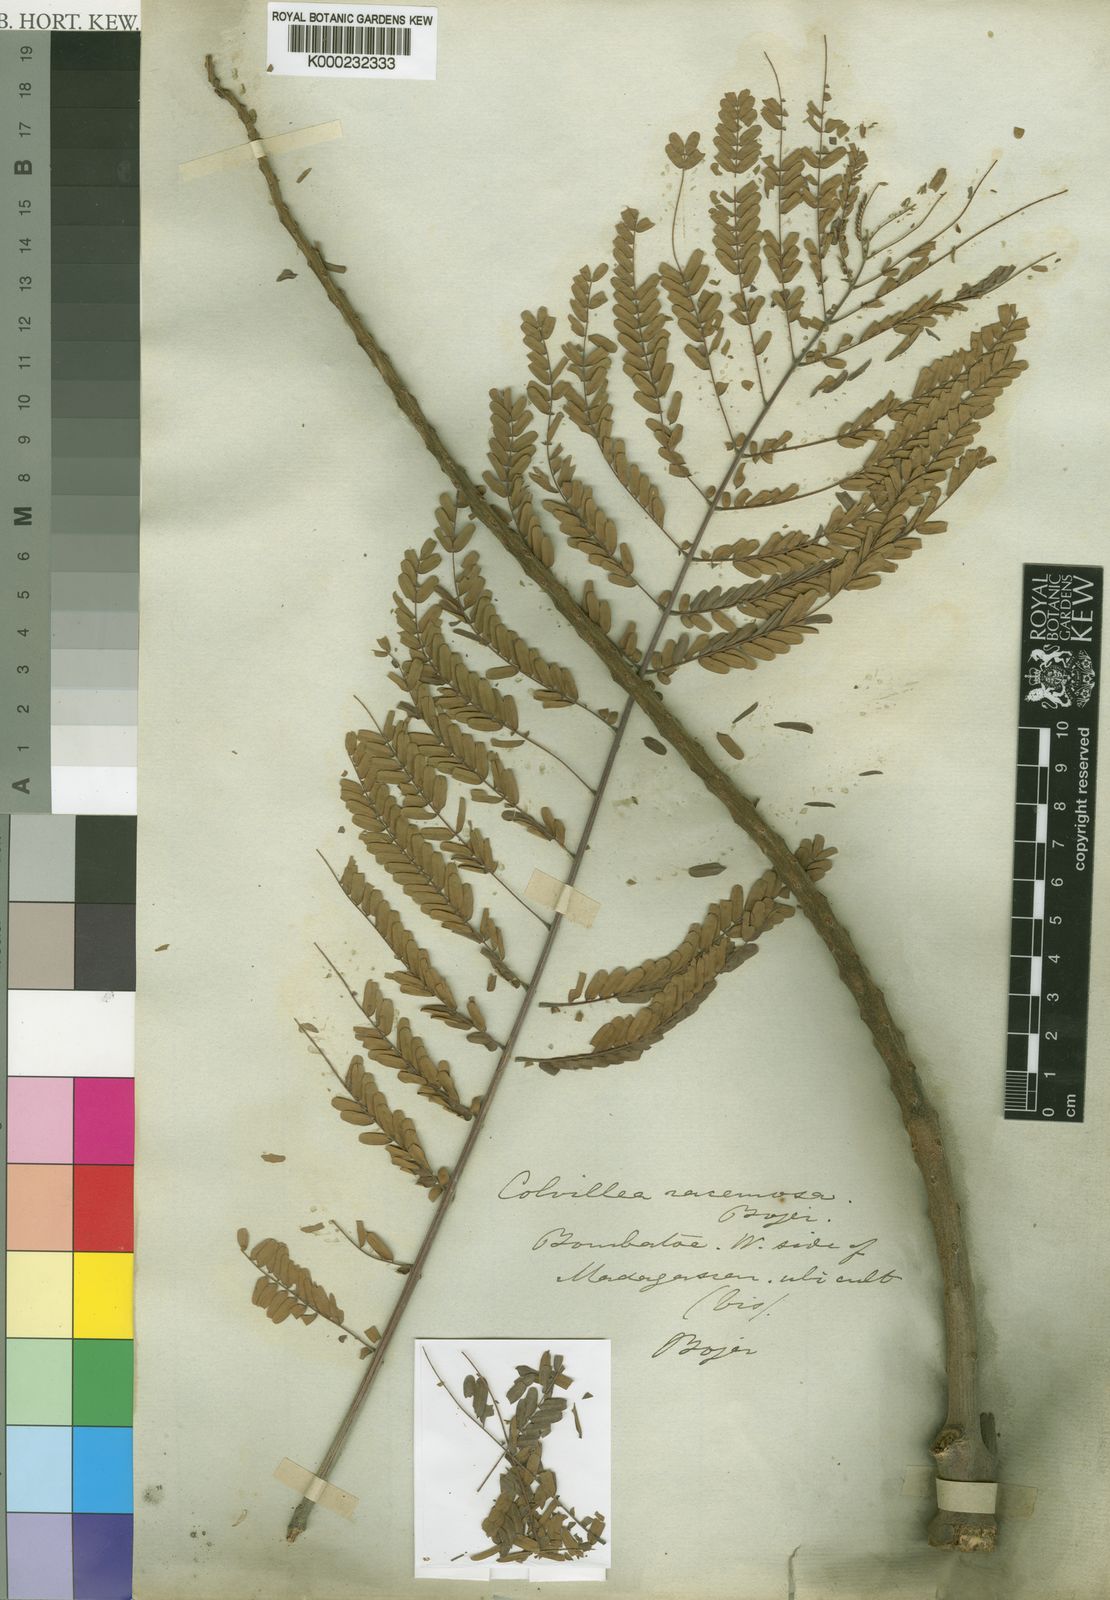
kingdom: Plantae
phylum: Tracheophyta
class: Magnoliopsida
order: Fabales
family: Fabaceae
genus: Colvillea
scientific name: Colvillea
